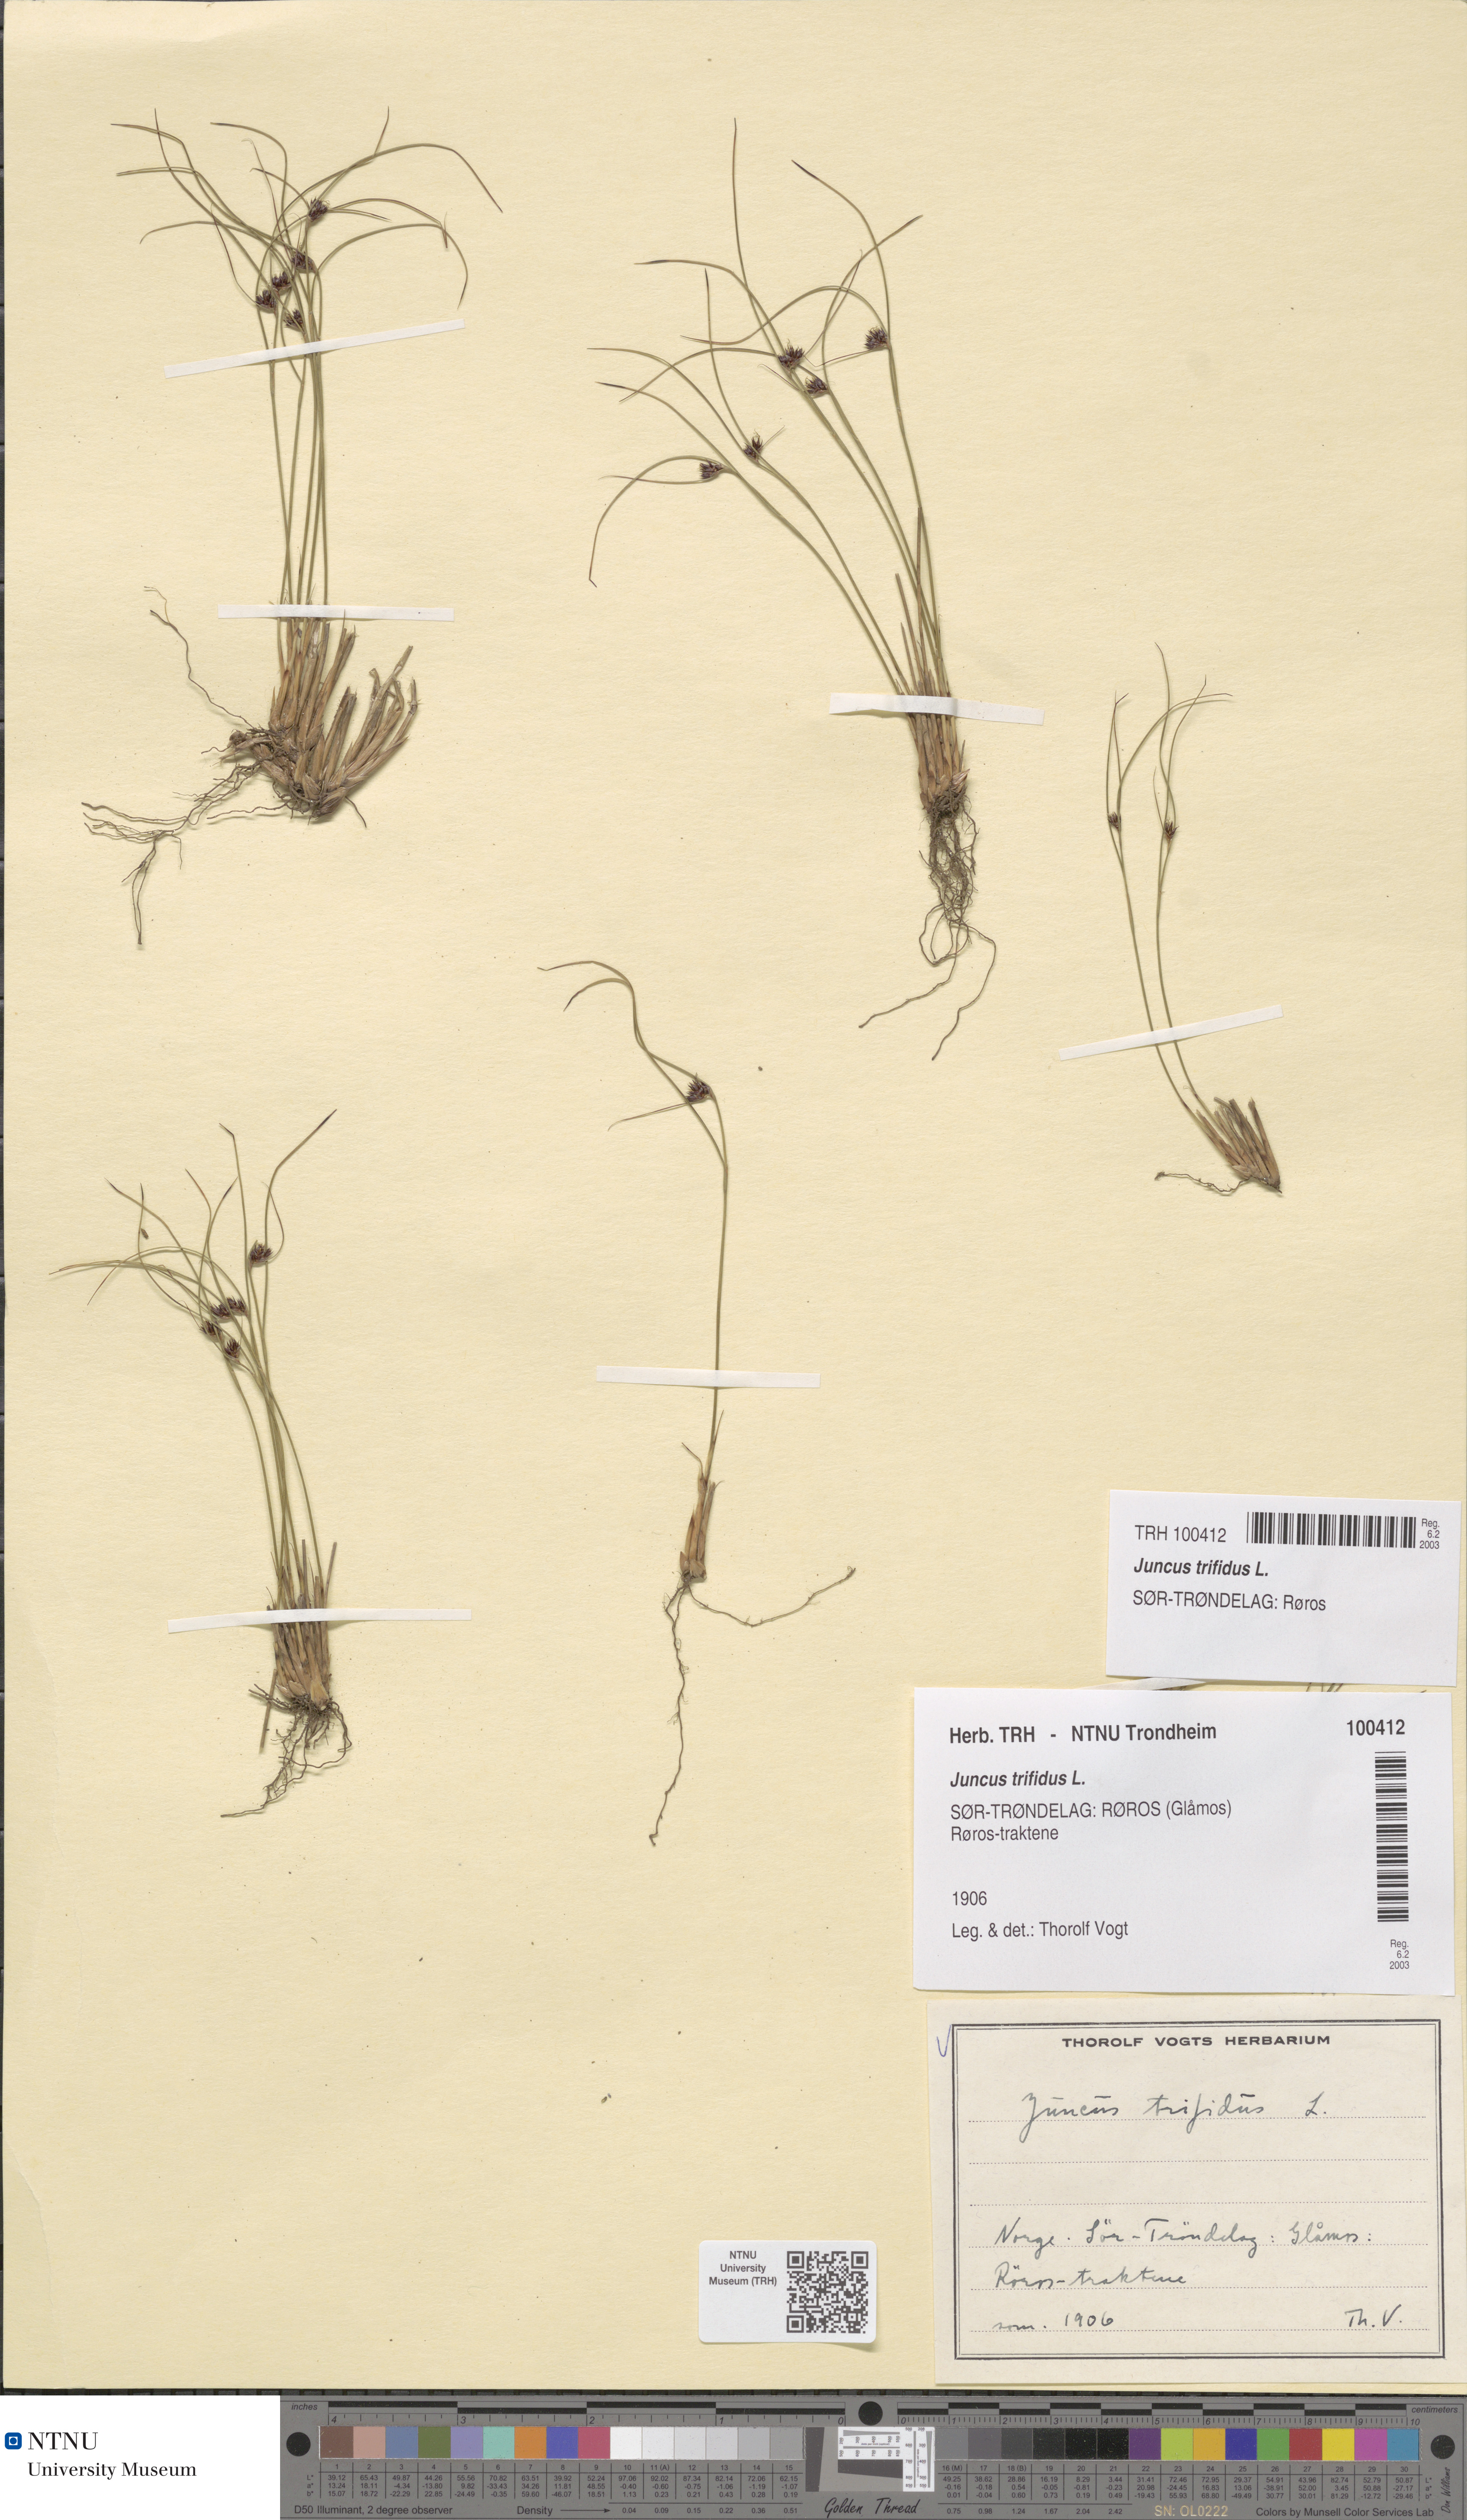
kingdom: Plantae
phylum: Tracheophyta
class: Liliopsida
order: Poales
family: Juncaceae
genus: Oreojuncus
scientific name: Oreojuncus trifidus
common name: Highland rush
